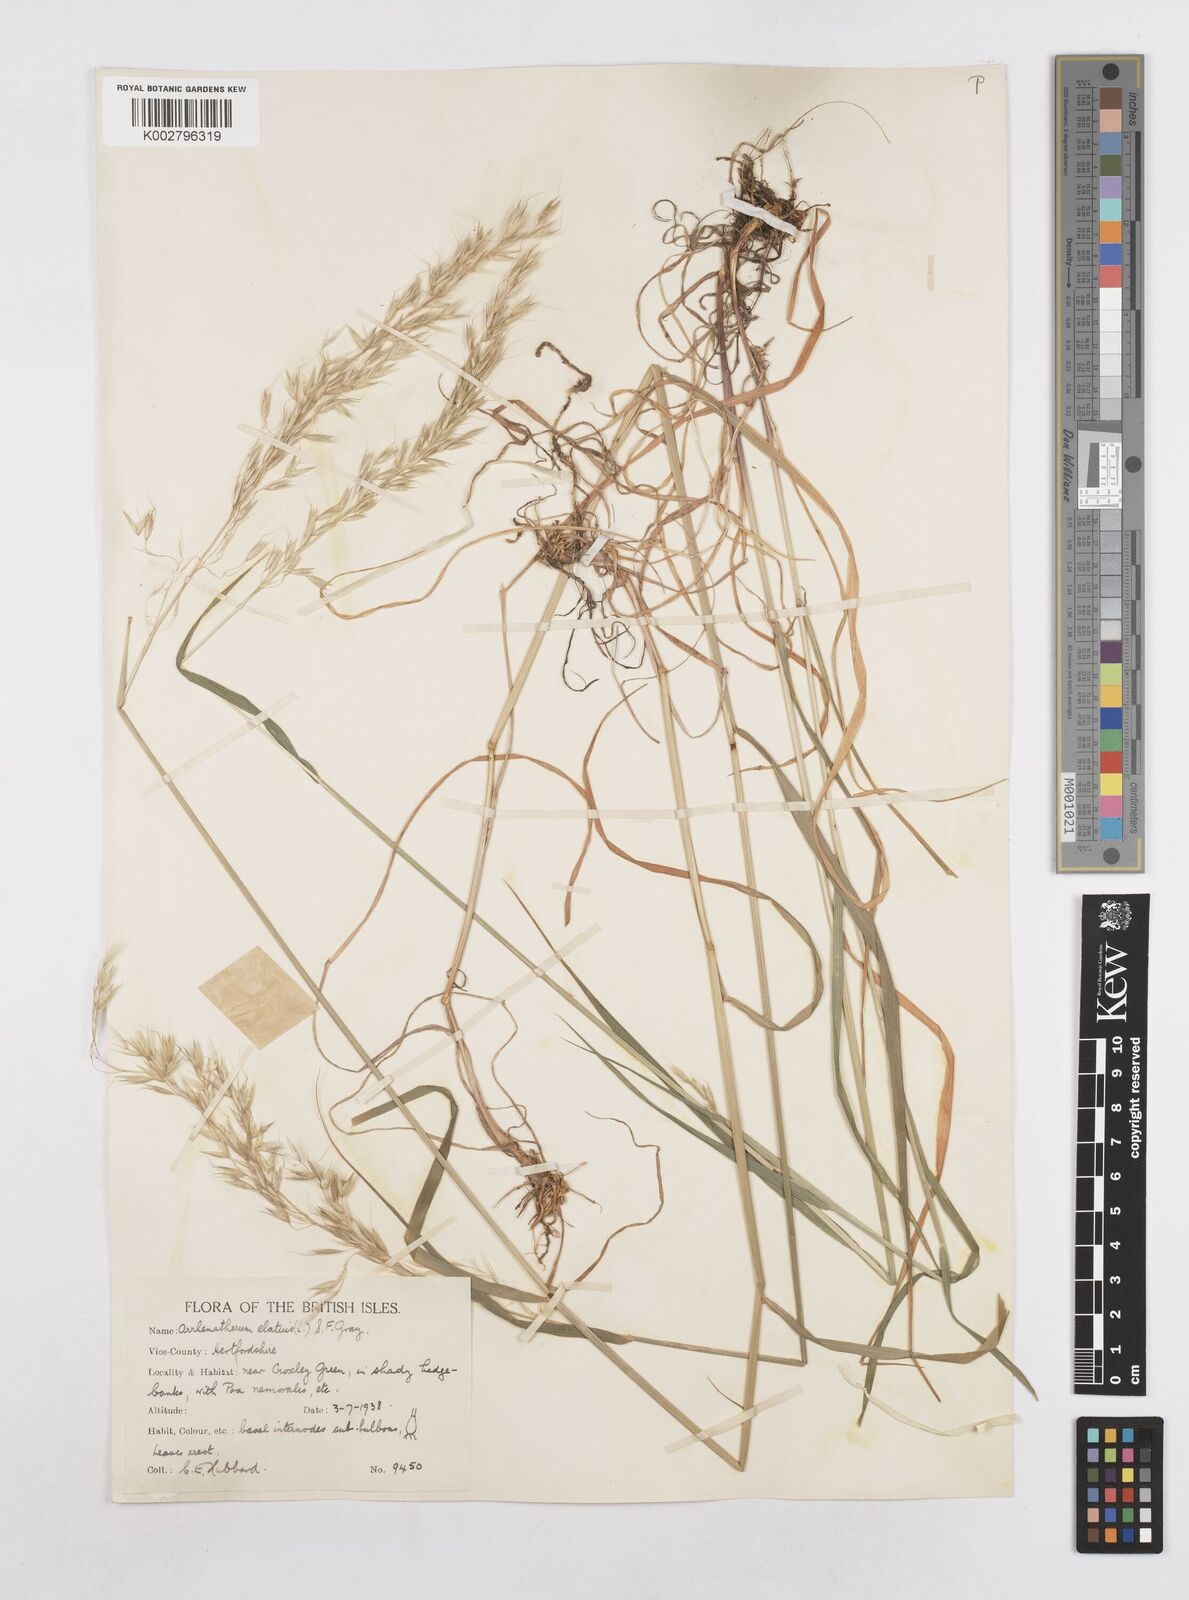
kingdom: Plantae
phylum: Tracheophyta
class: Liliopsida
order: Poales
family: Poaceae
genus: Arrhenatherum
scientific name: Arrhenatherum elatius
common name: Tall oatgrass
